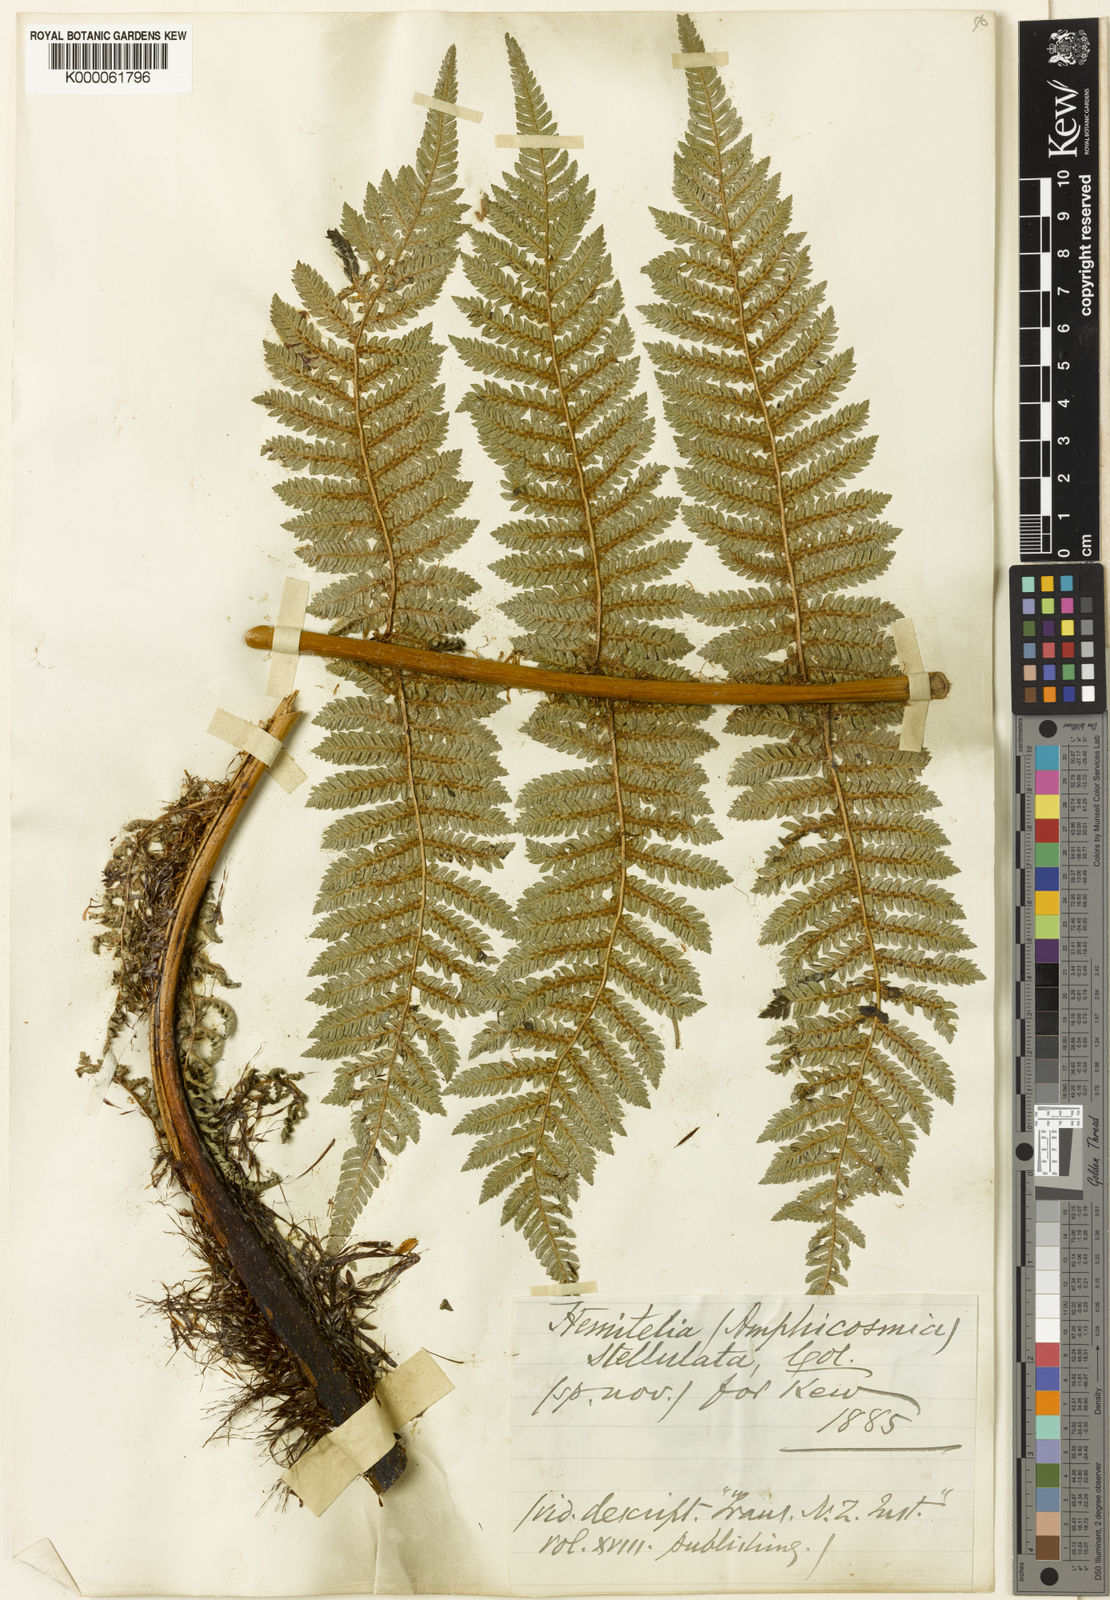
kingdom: Plantae
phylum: Tracheophyta
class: Polypodiopsida
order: Cyatheales
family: Cyatheaceae
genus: Alsophila
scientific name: Alsophila smithii
